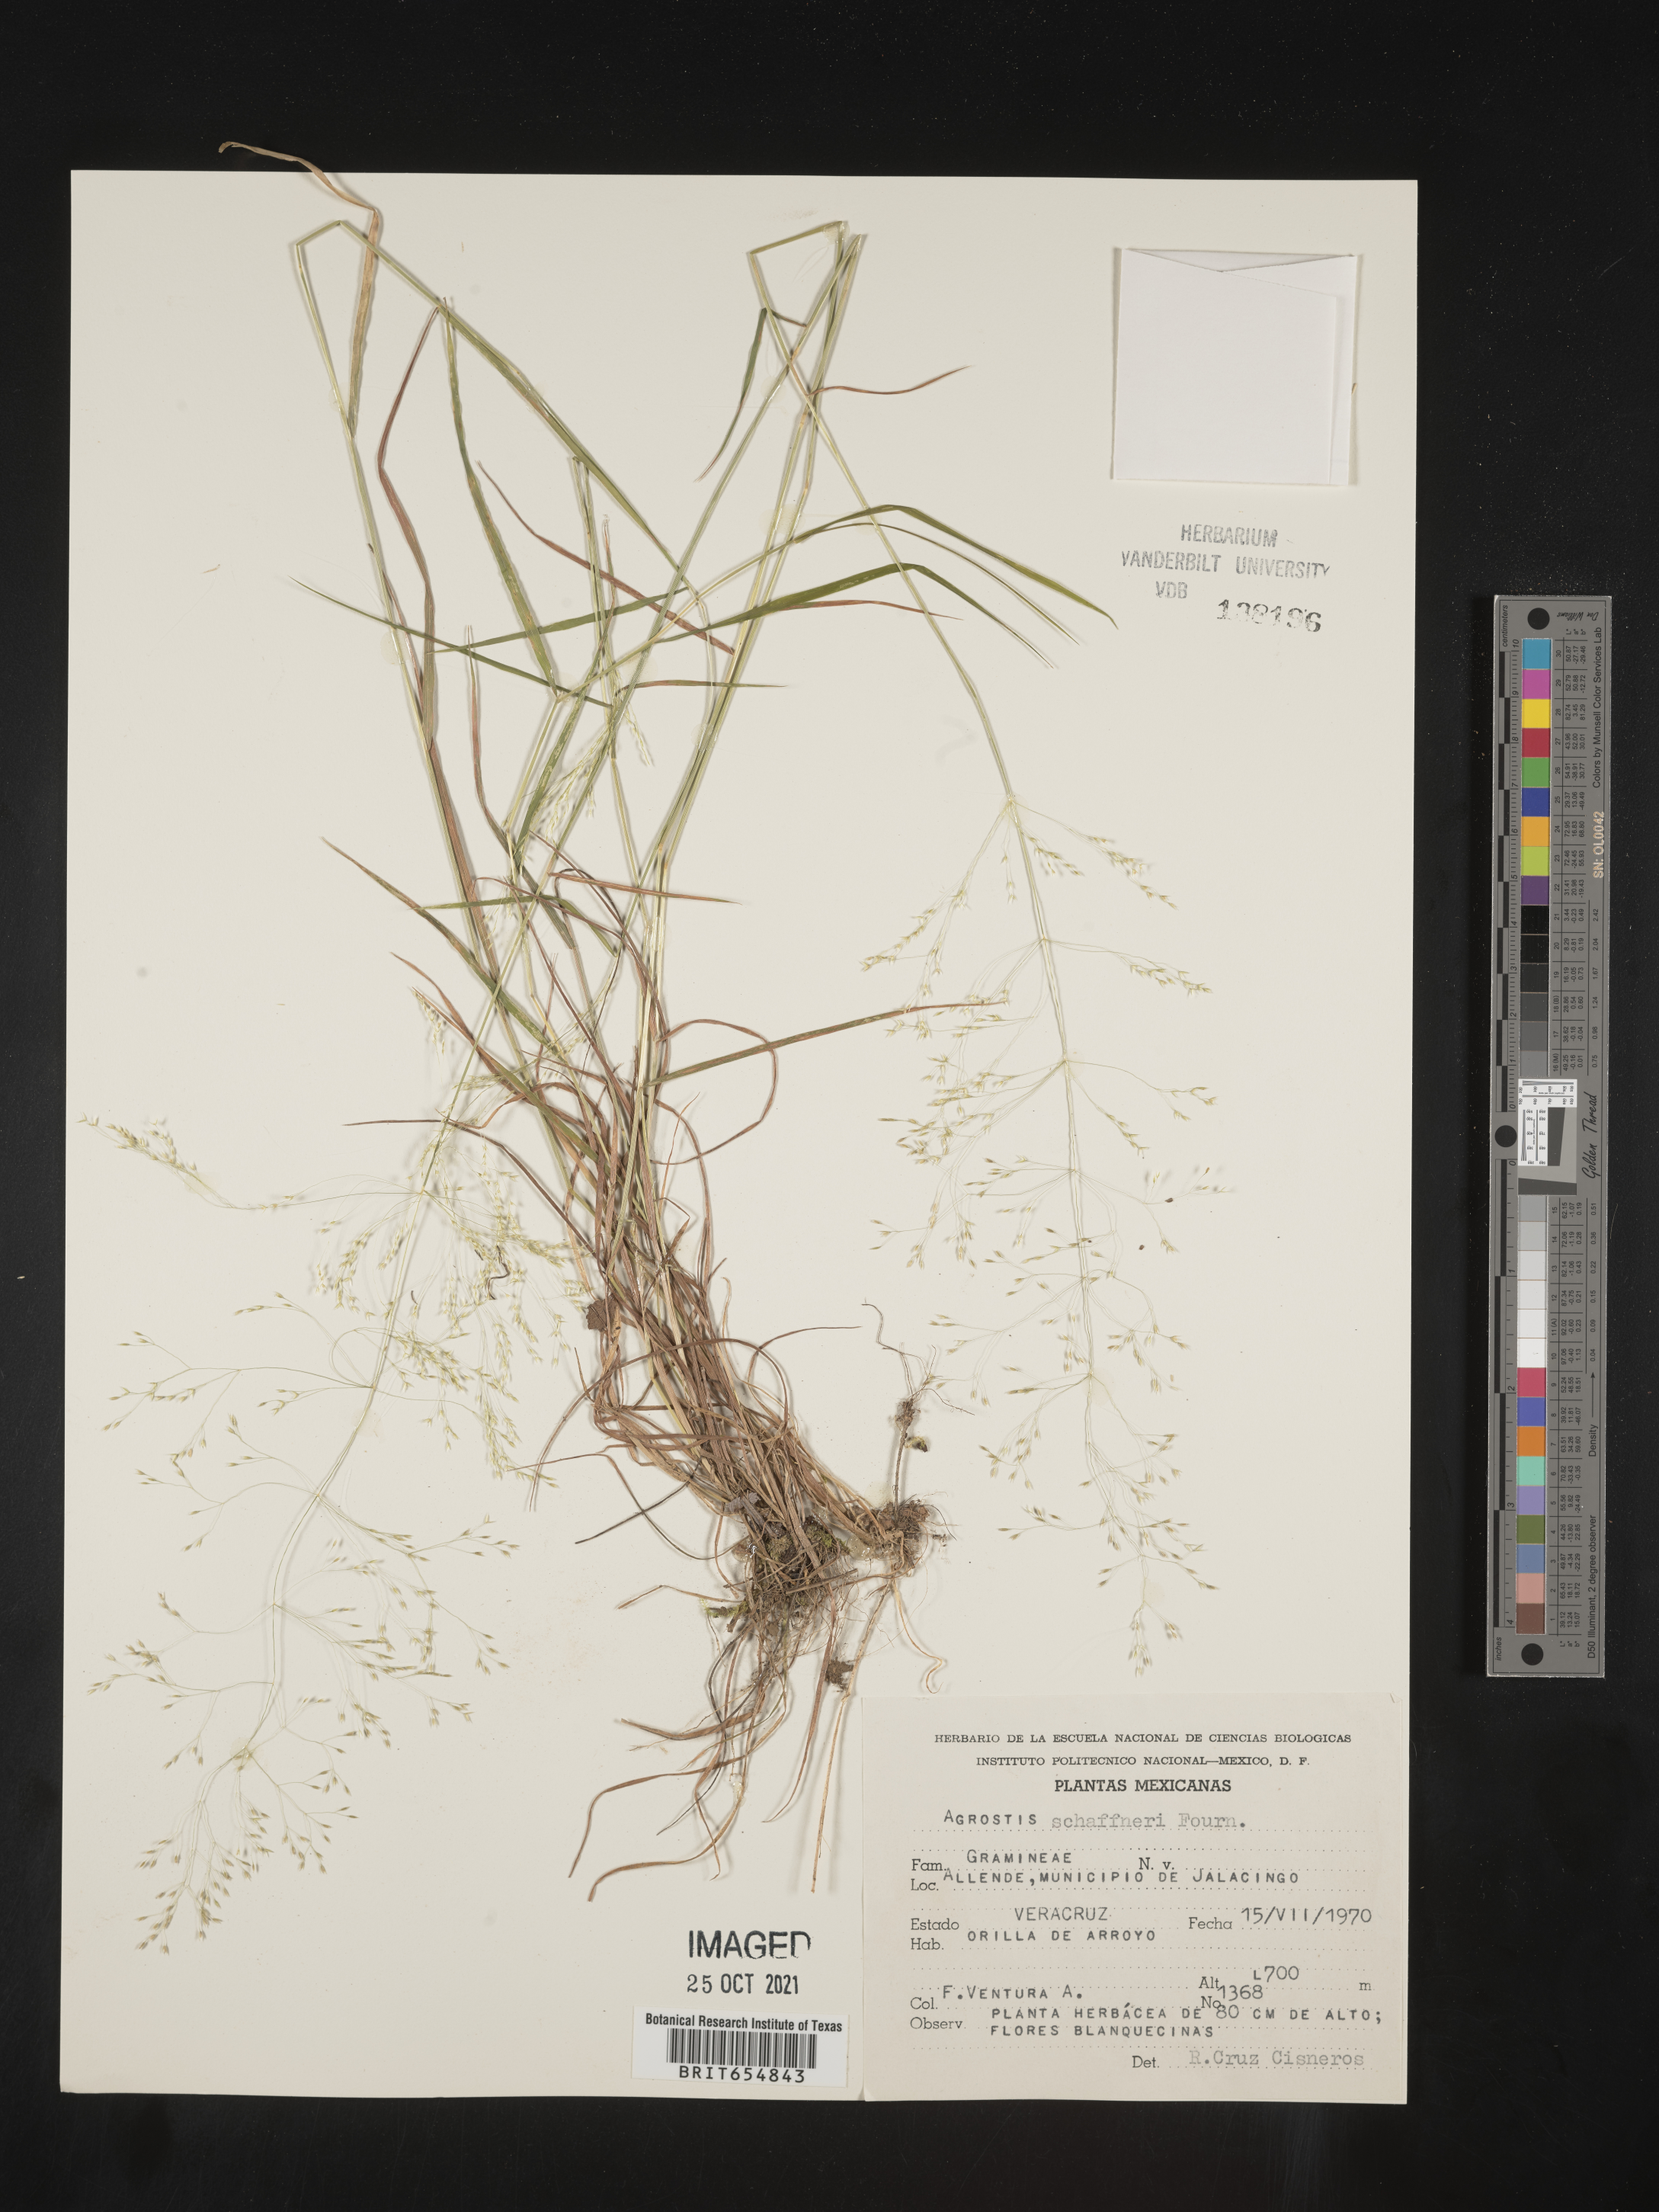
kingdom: Plantae
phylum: Tracheophyta
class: Liliopsida
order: Poales
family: Poaceae
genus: Agrostis
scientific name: Agrostis
